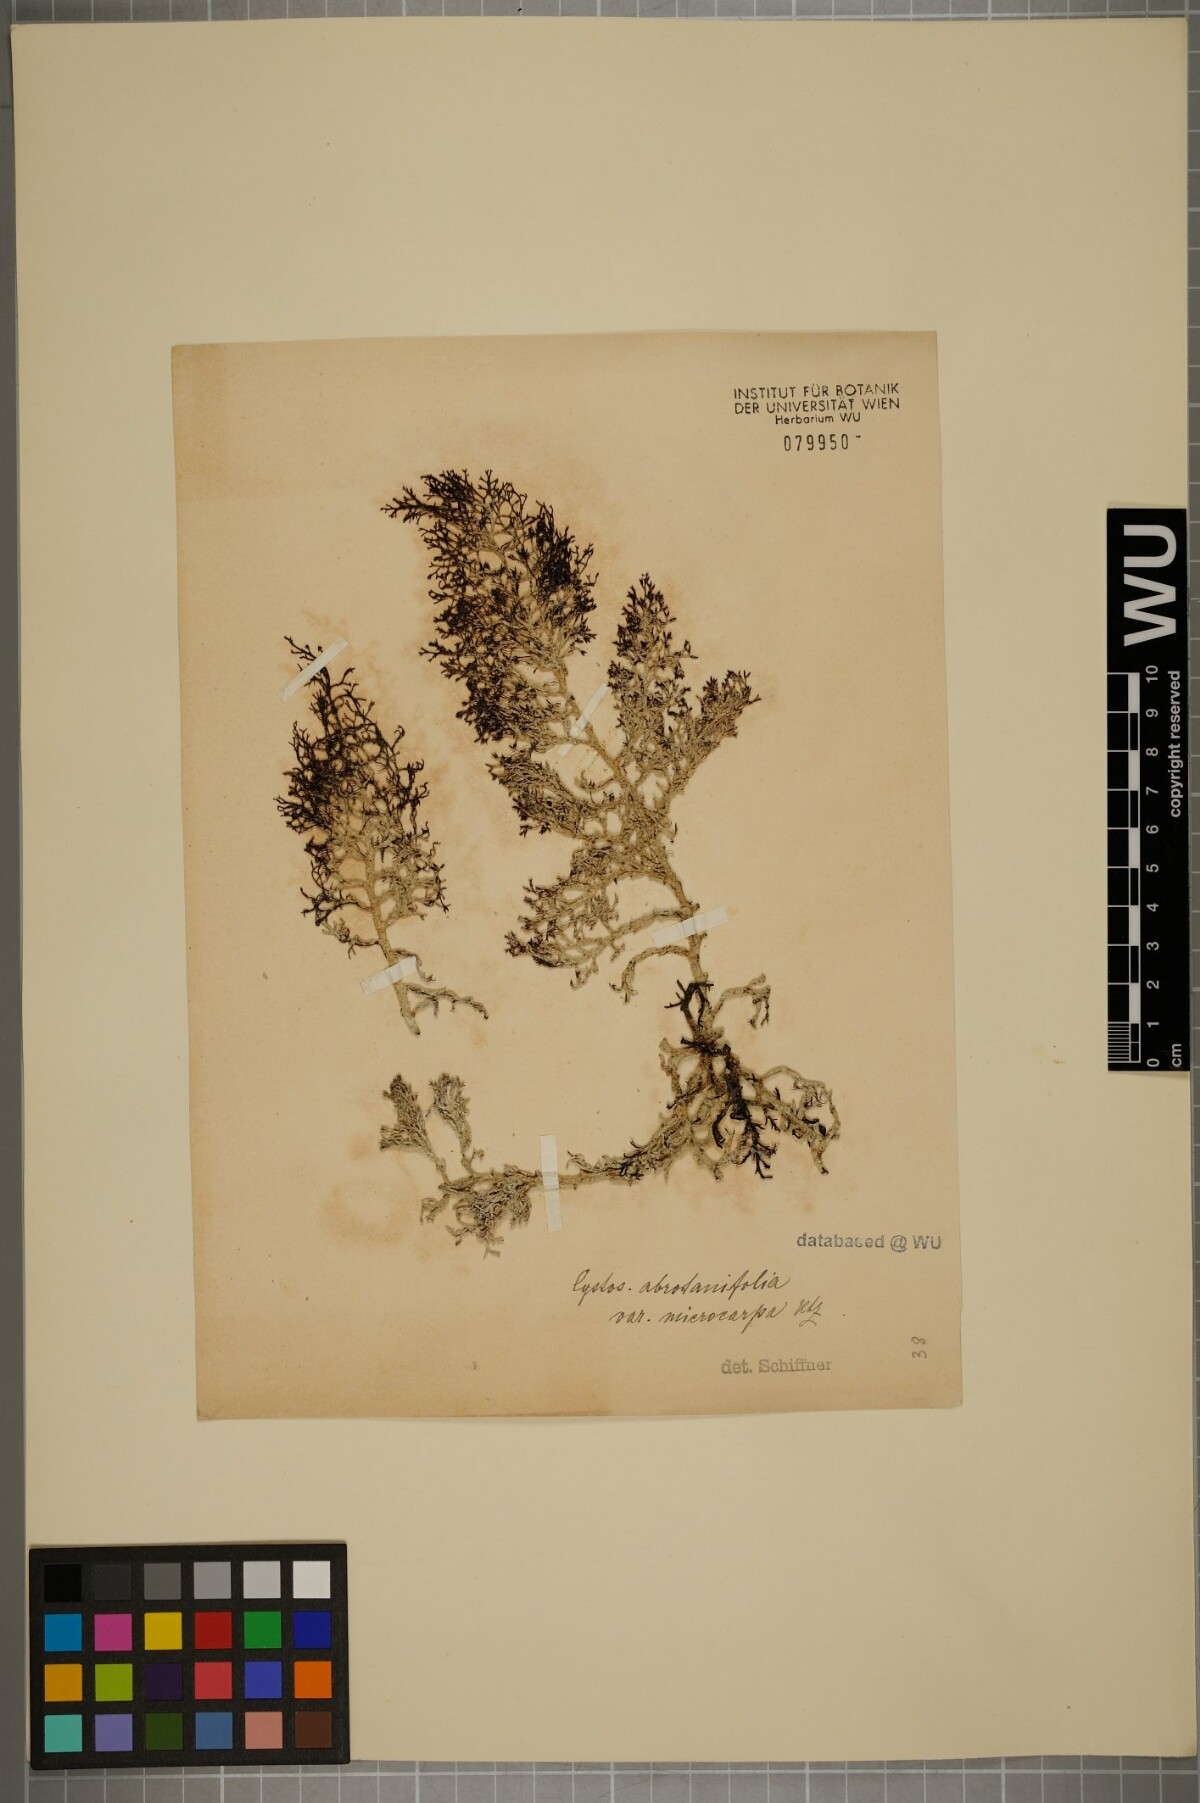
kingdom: Chromista
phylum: Ochrophyta
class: Phaeophyceae
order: Fucales
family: Sargassaceae
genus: Cystoseira
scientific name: Cystoseira foeniculacea
